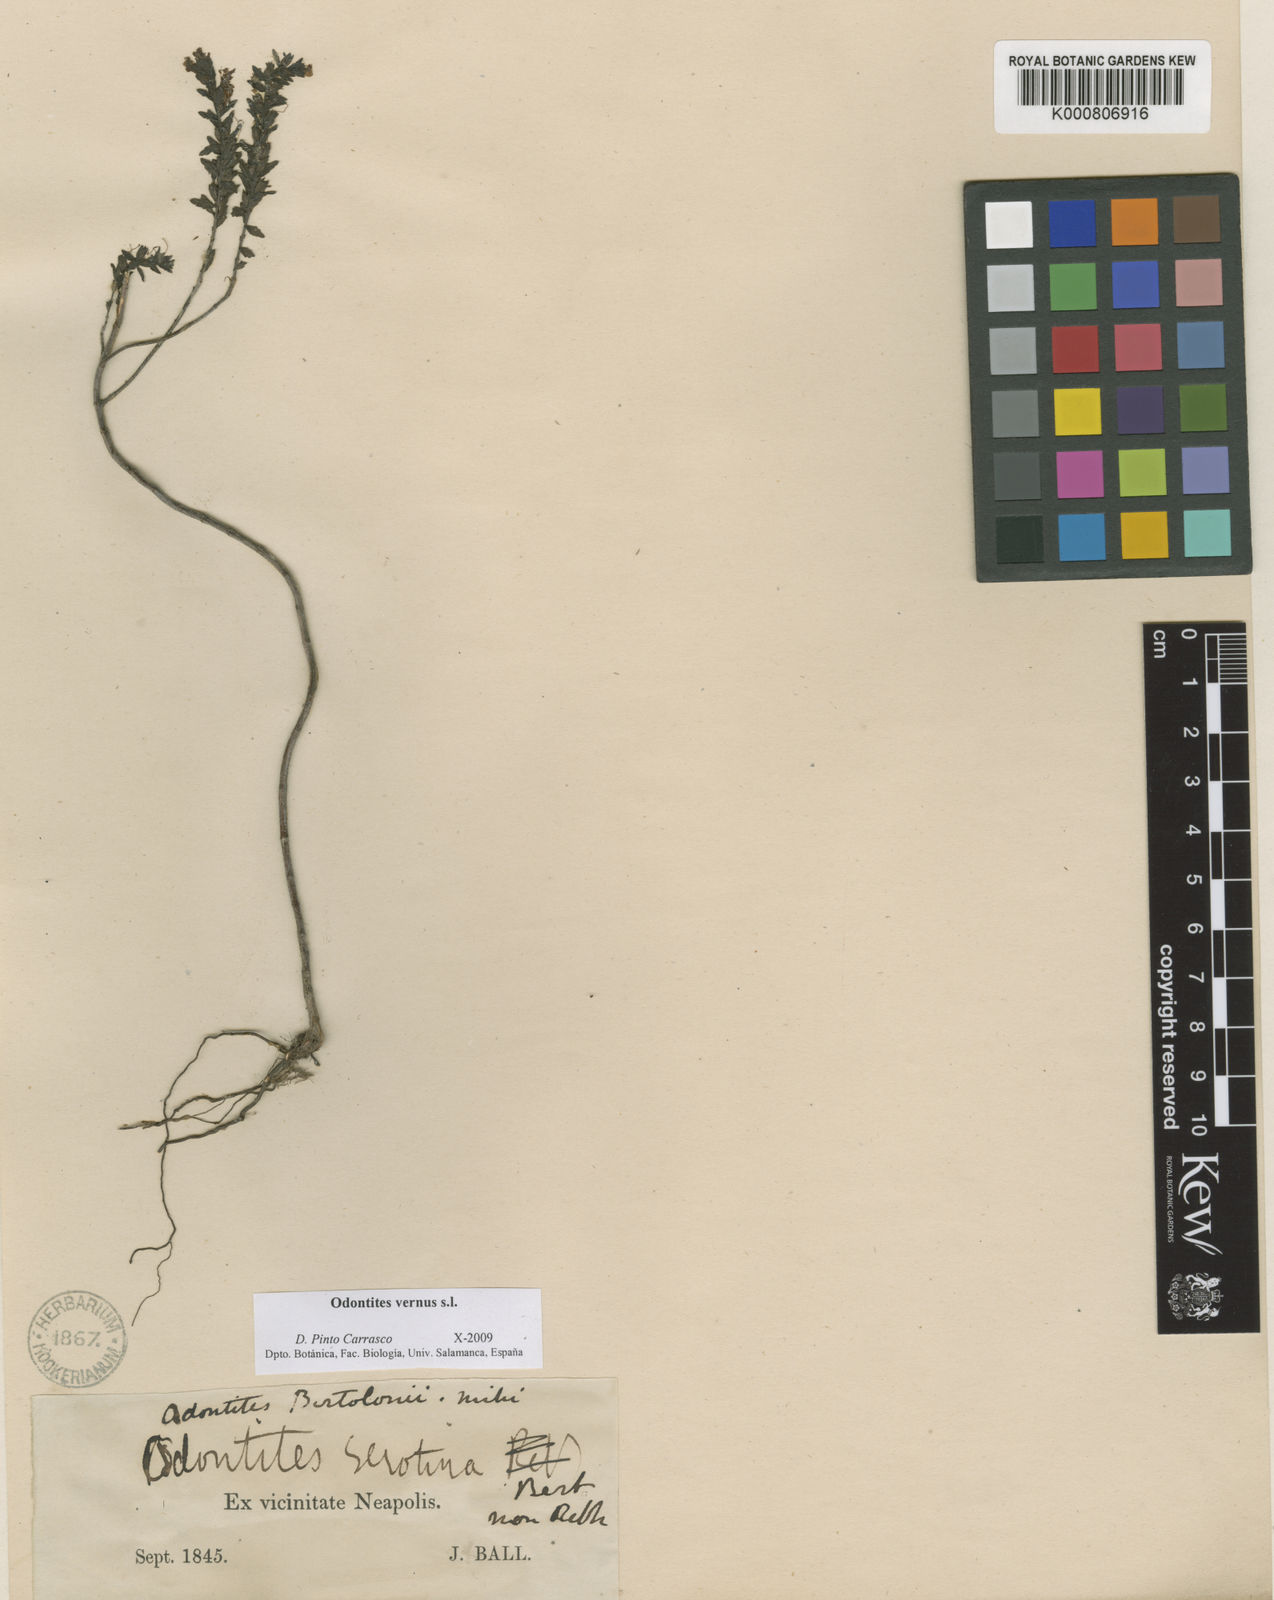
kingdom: Plantae
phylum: Tracheophyta
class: Magnoliopsida
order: Lamiales
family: Orobanchaceae
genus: Odontites
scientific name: Odontites vernus
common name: Red bartsia
